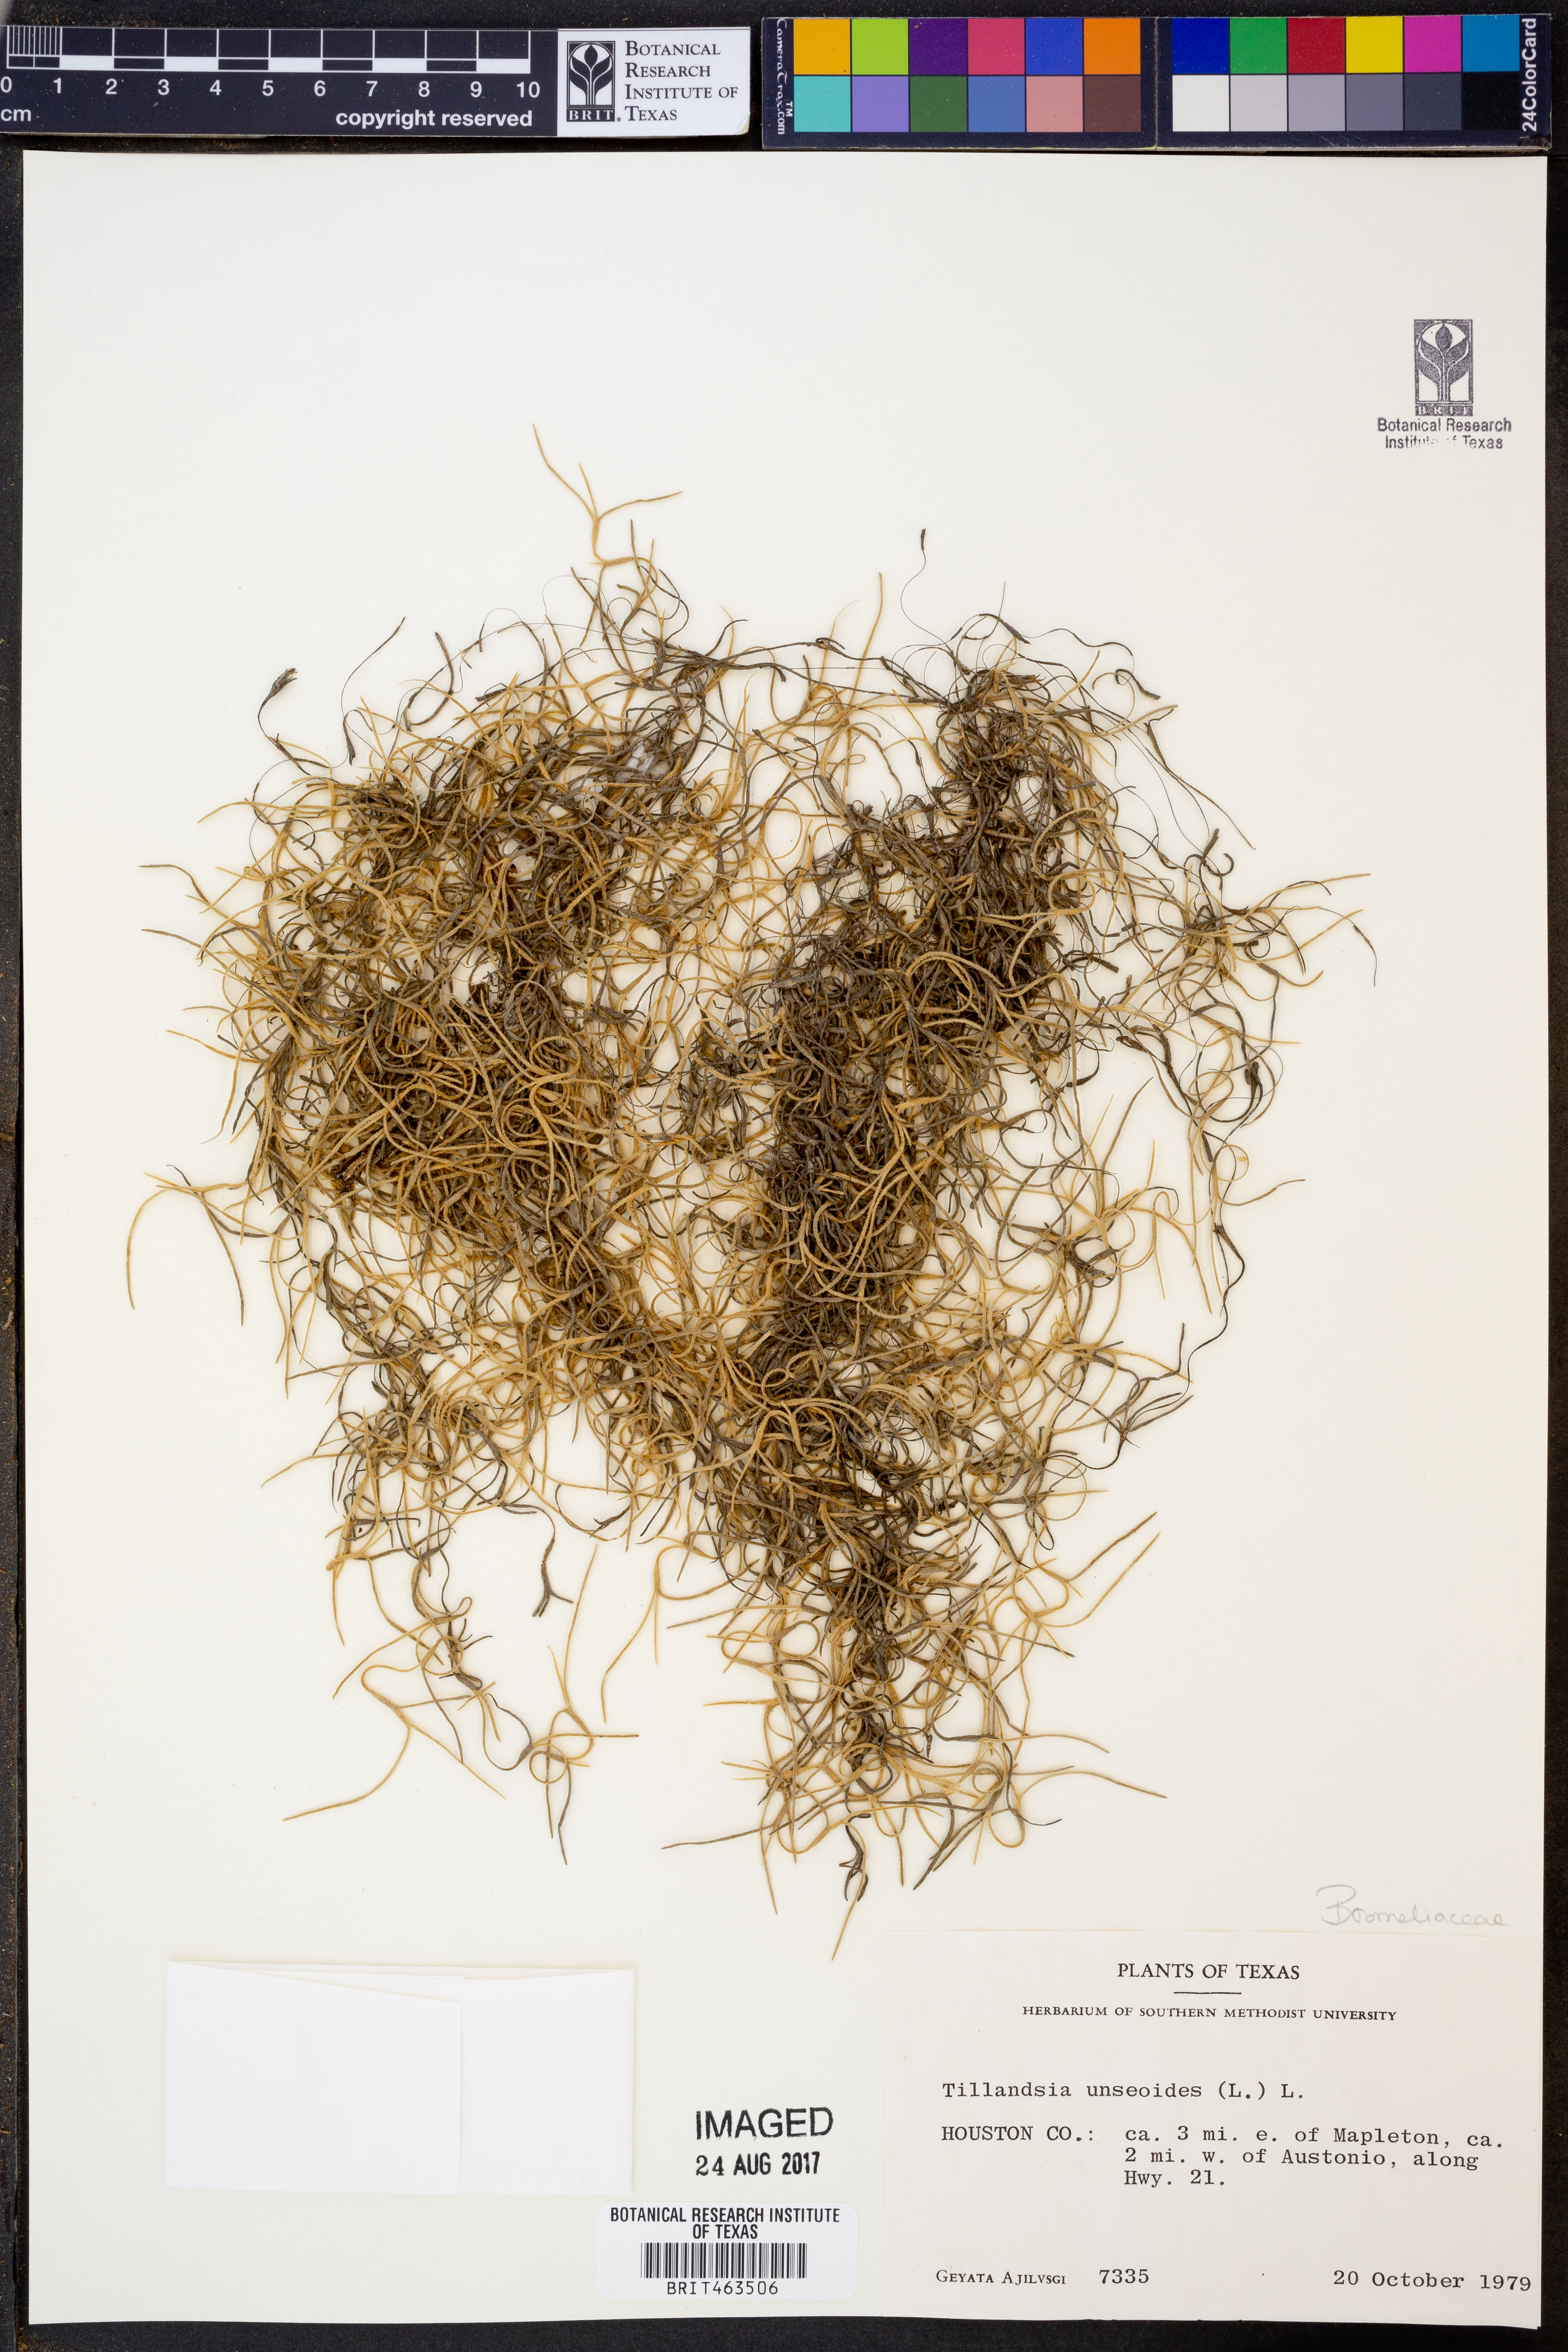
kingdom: Plantae
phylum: Tracheophyta
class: Liliopsida
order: Poales
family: Bromeliaceae
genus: Tillandsia
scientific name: Tillandsia usneoides
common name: Spanish moss
